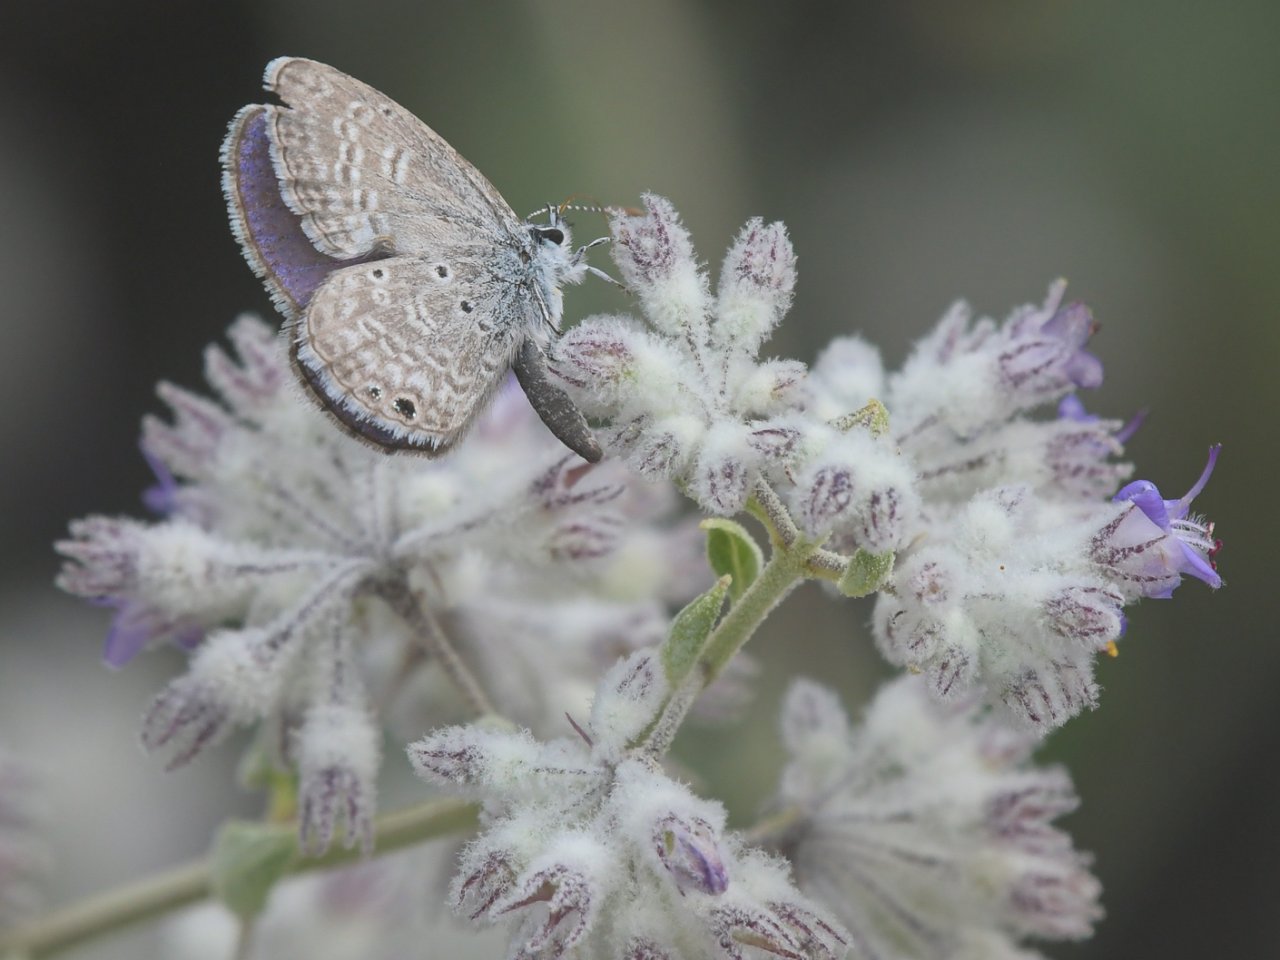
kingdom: Animalia
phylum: Arthropoda
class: Insecta
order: Lepidoptera
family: Lycaenidae
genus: Hemiargus
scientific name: Hemiargus ceraunus
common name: Ceraunus Blue
